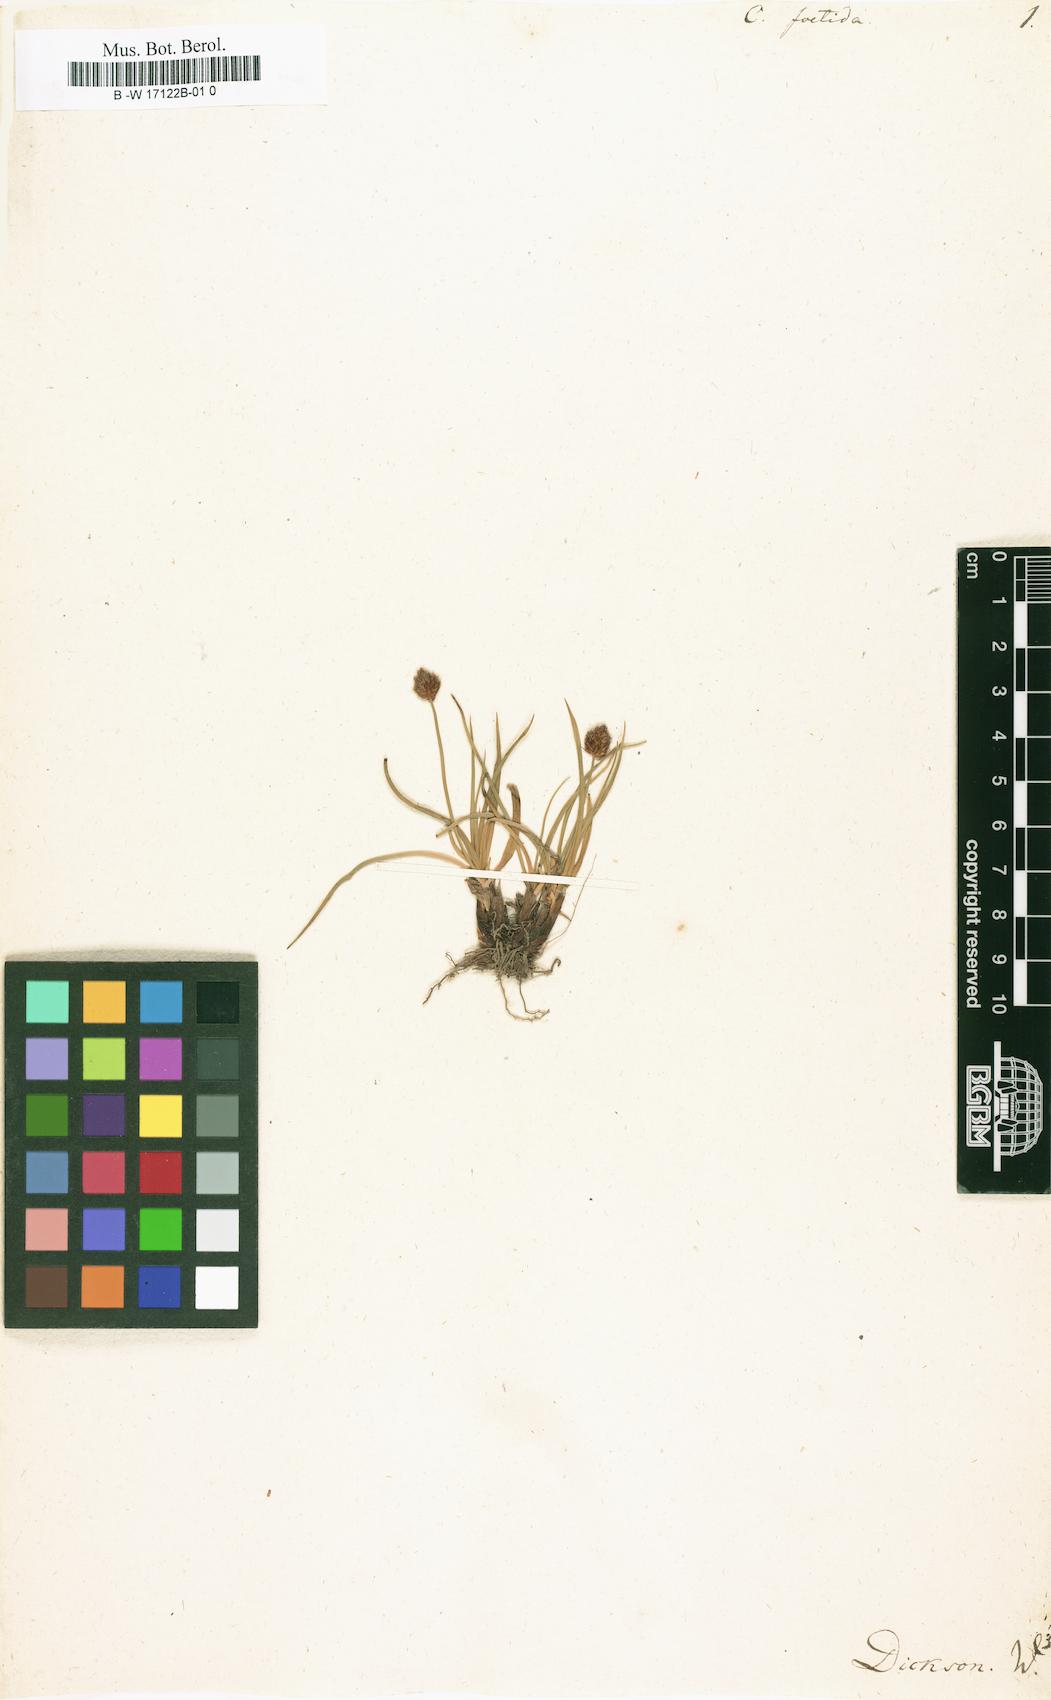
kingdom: Plantae
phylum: Tracheophyta
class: Liliopsida
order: Poales
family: Cyperaceae
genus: Carex
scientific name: Carex foetida
